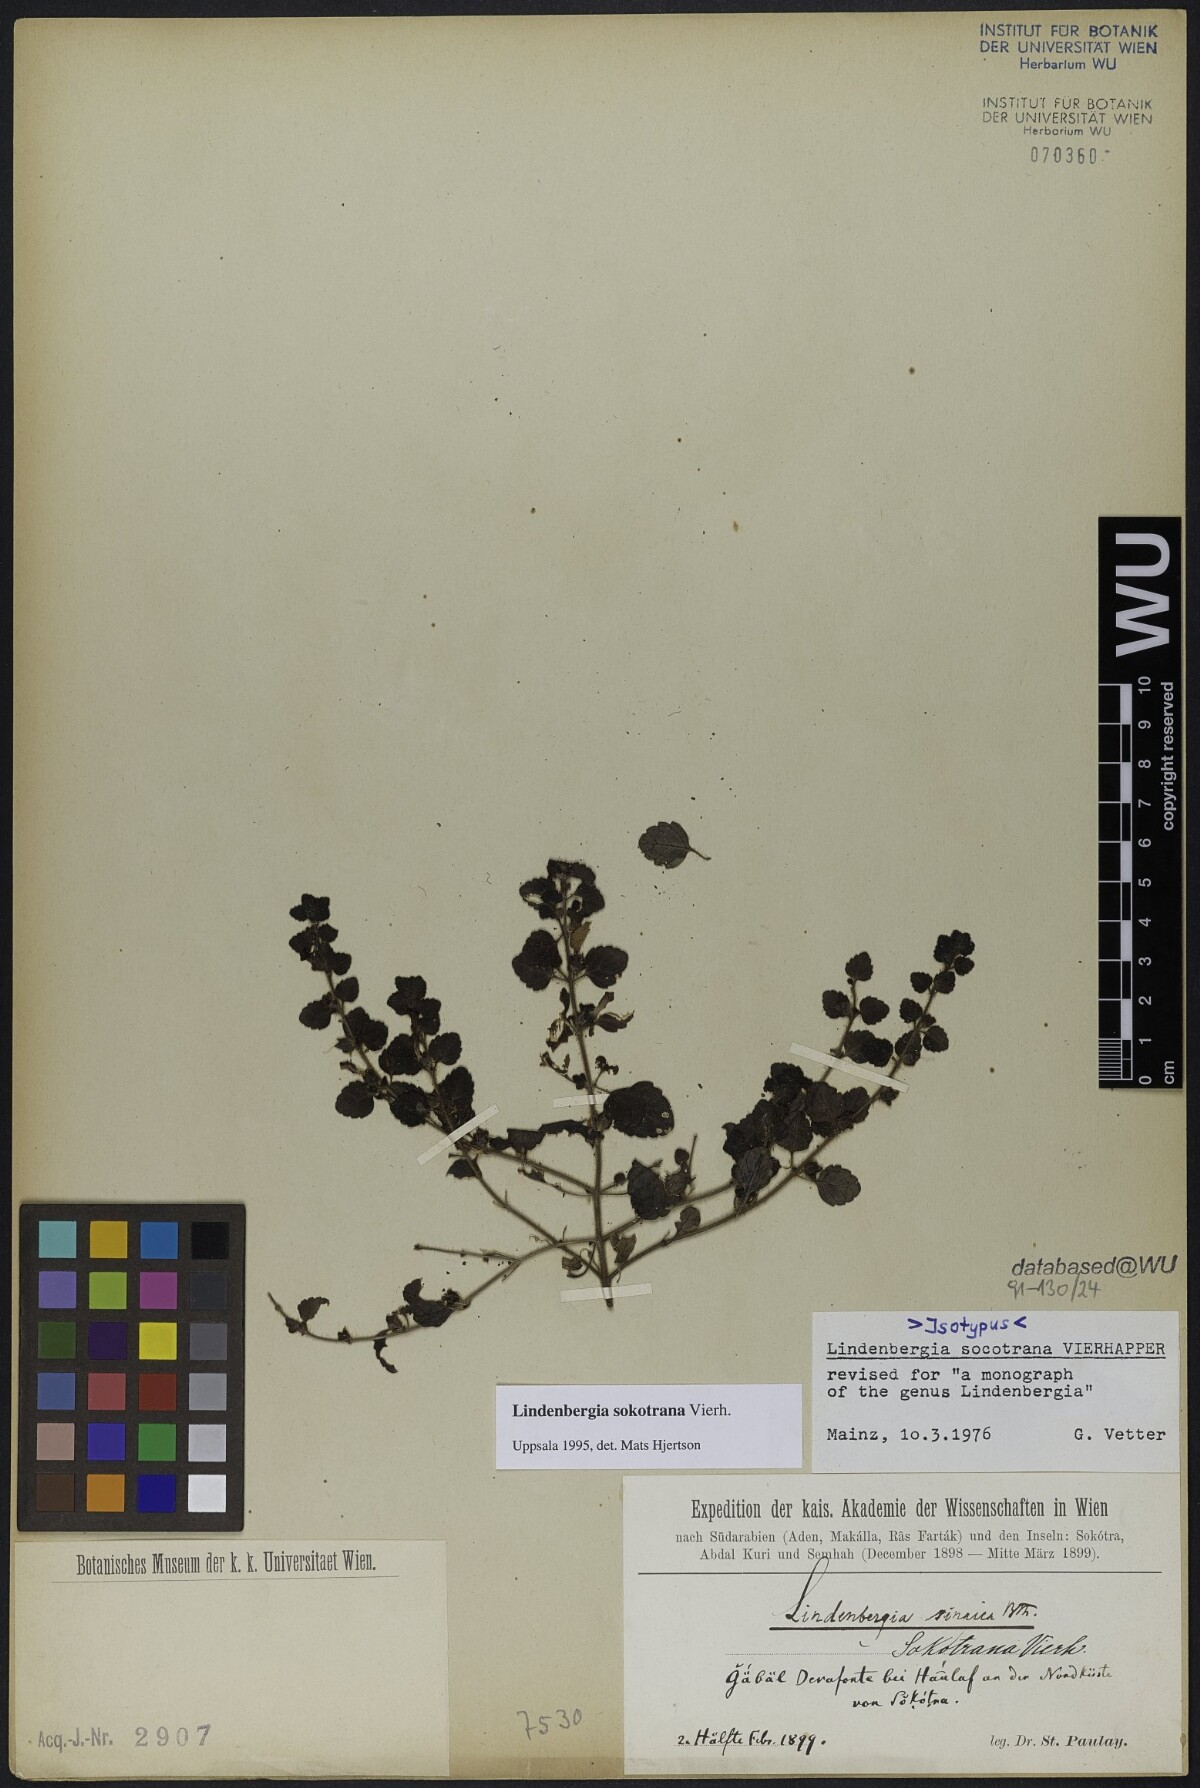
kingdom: Plantae
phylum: Tracheophyta
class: Magnoliopsida
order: Lamiales
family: Orobanchaceae
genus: Lindenbergia
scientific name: Lindenbergia sokotrana
